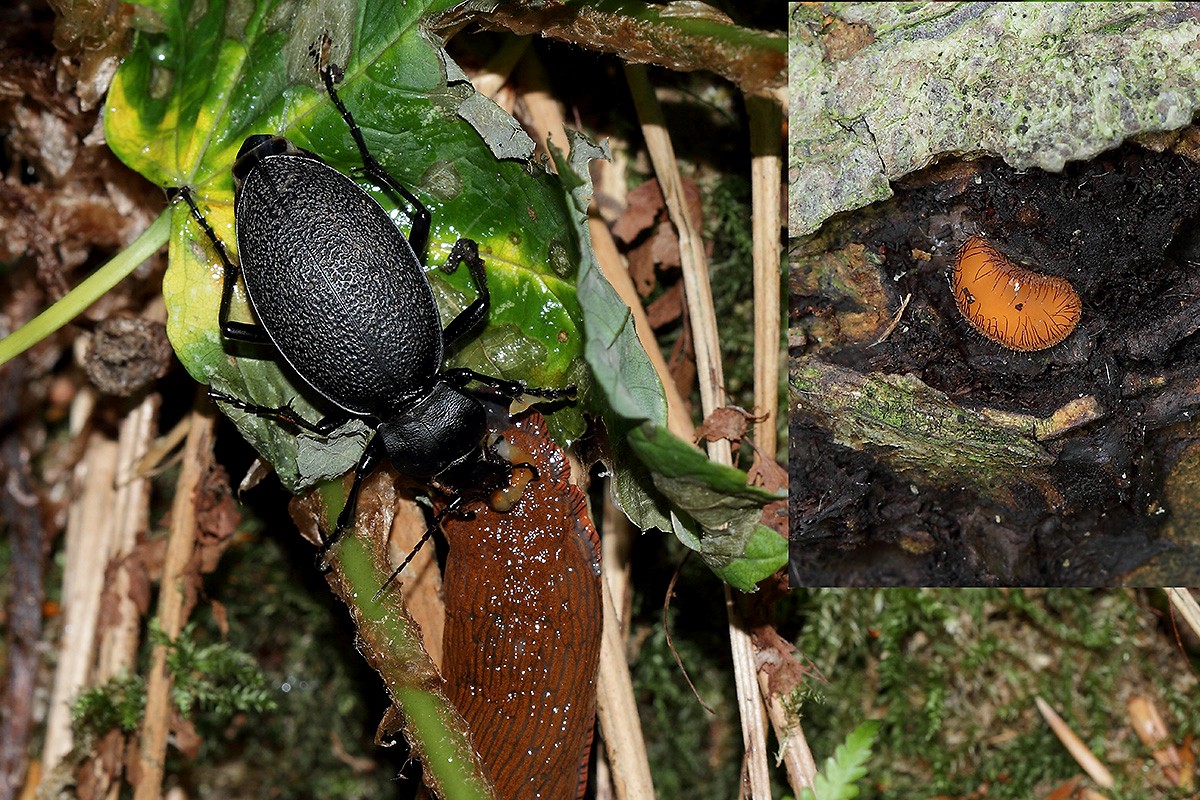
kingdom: Fungi
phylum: Ascomycota
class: Pezizomycetes
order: Pezizales
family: Pyronemataceae
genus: Scutellinia
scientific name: Scutellinia scutellata
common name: frynset skjoldbæger
